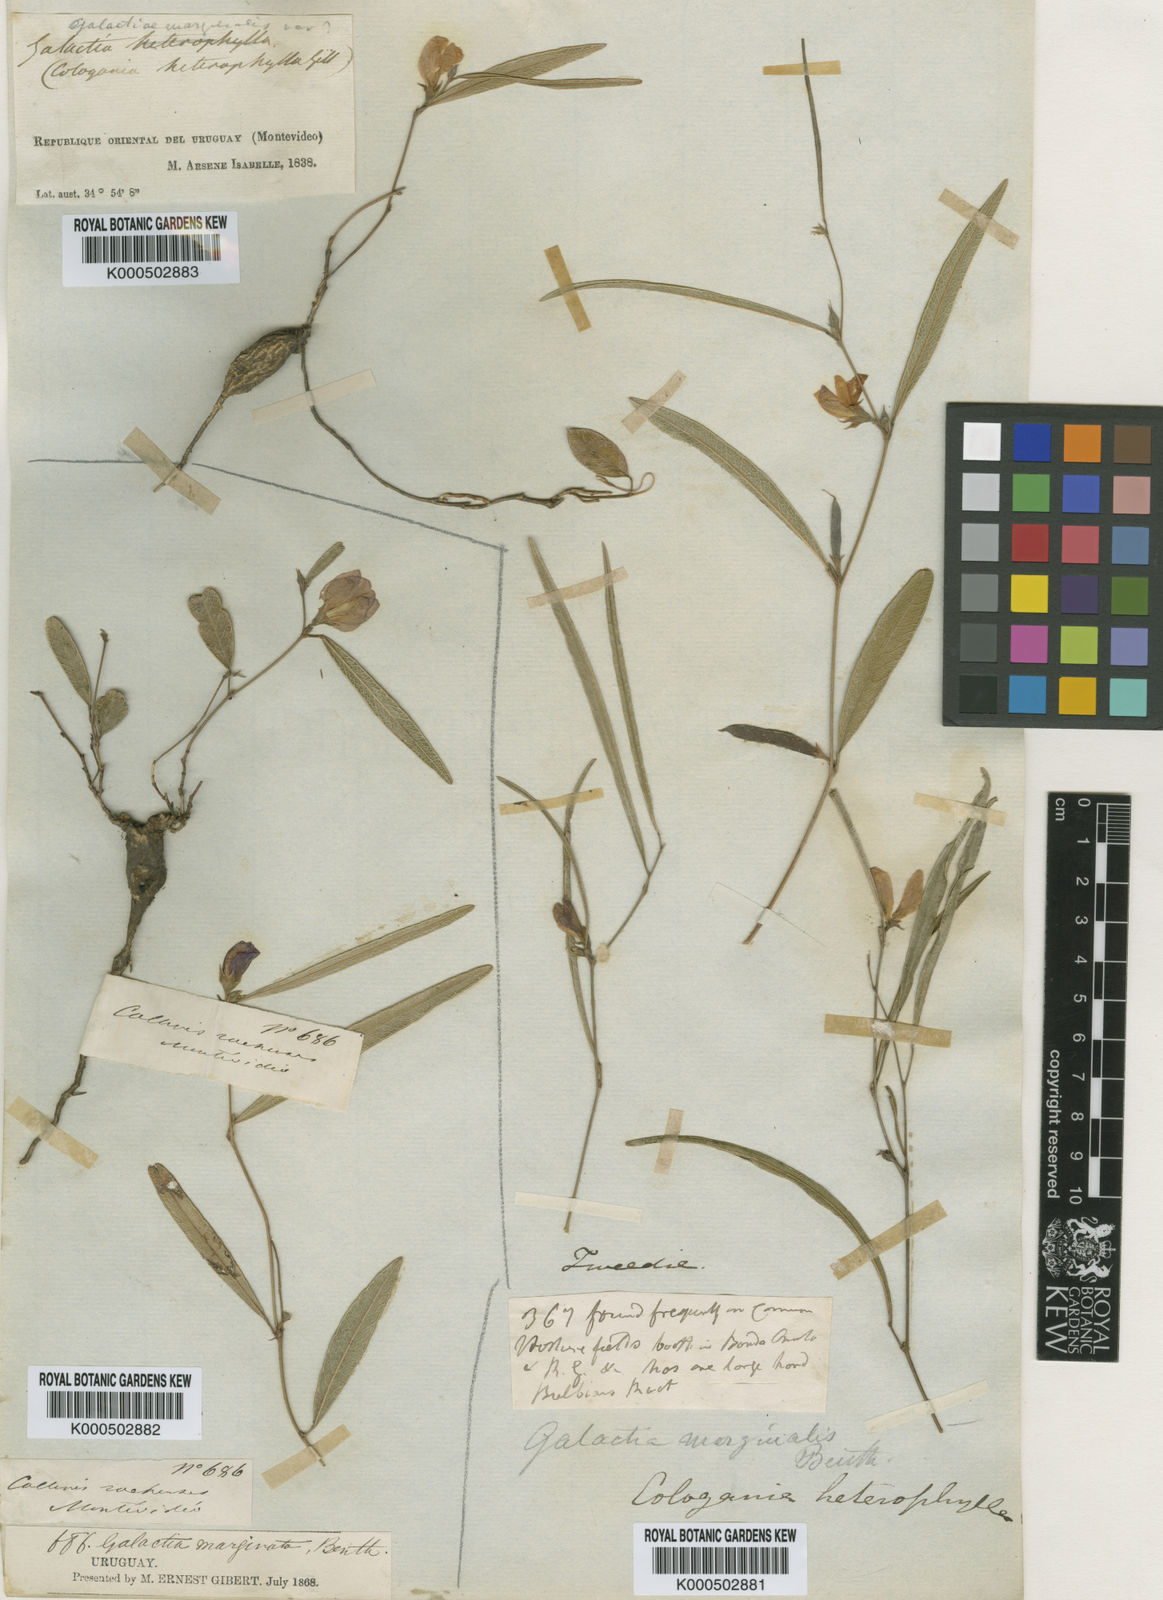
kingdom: Plantae
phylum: Tracheophyta
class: Magnoliopsida
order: Fabales
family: Fabaceae
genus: Nanogalactia
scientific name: Nanogalactia heterophylla
